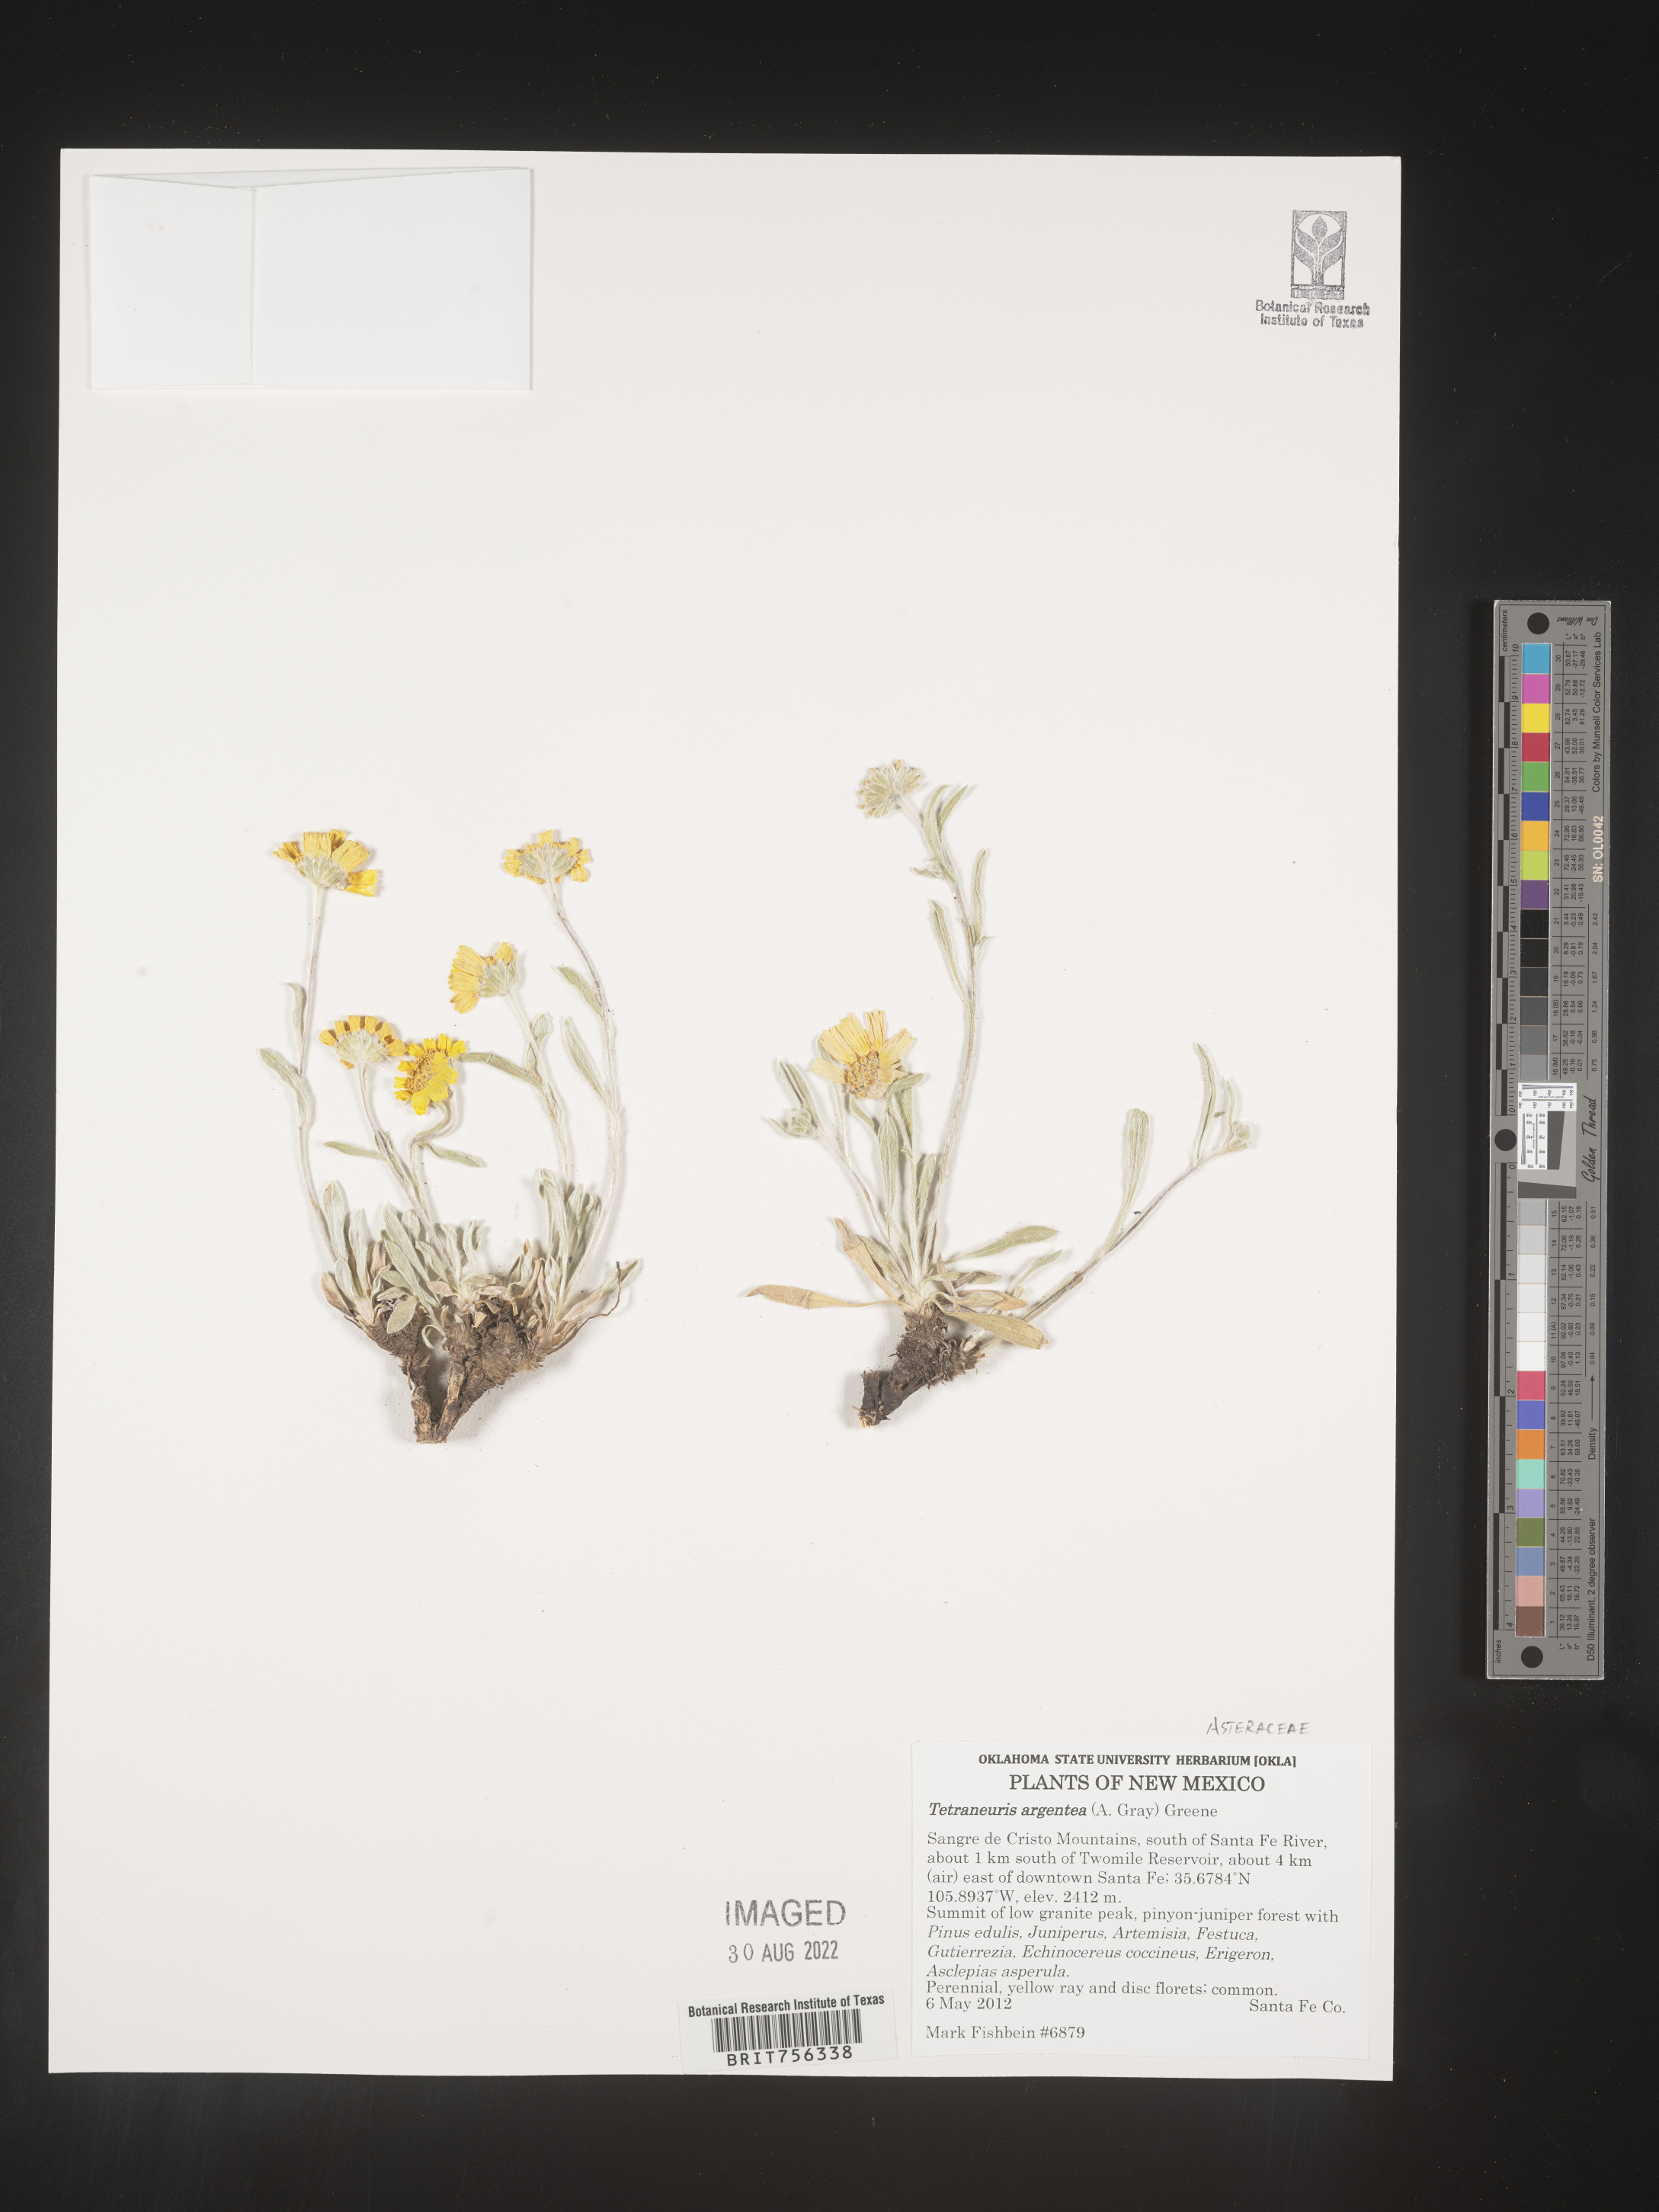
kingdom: Plantae
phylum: Tracheophyta
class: Magnoliopsida
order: Asterales
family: Asteraceae
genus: Tetraneuris
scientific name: Tetraneuris argentea
